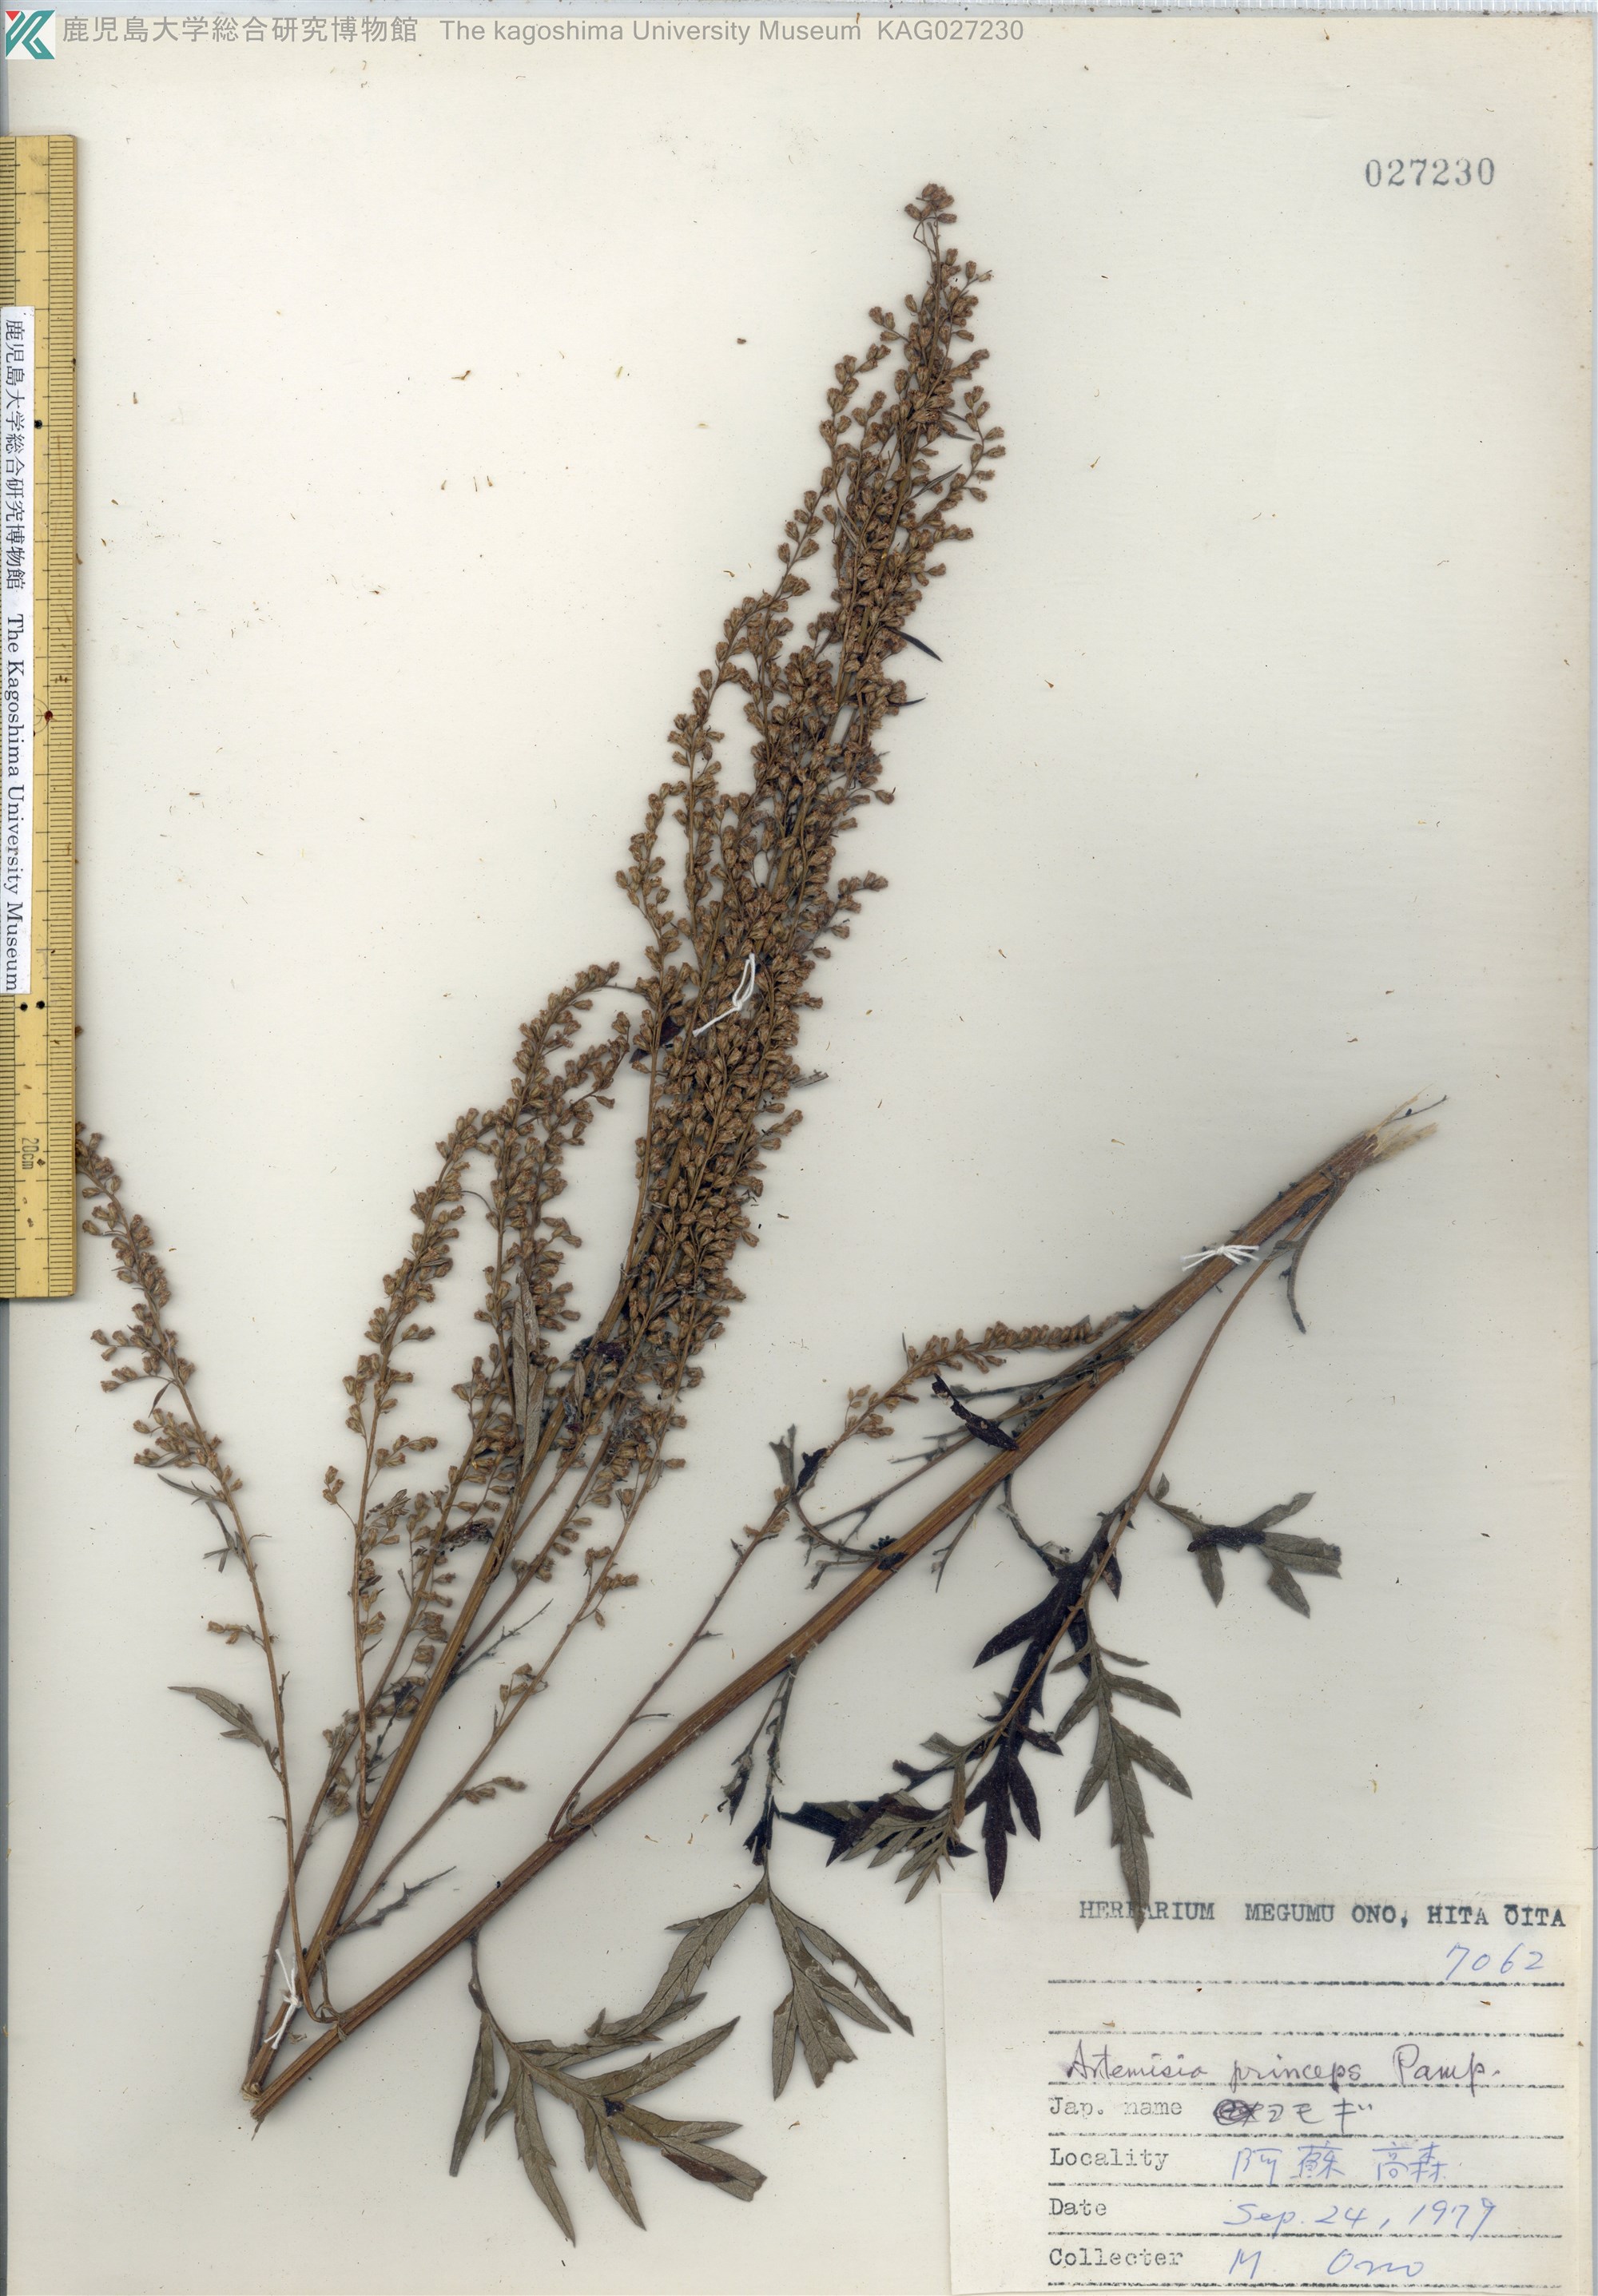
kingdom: Plantae
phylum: Tracheophyta
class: Magnoliopsida
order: Asterales
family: Asteraceae
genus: Artemisia
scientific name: Artemisia princeps
